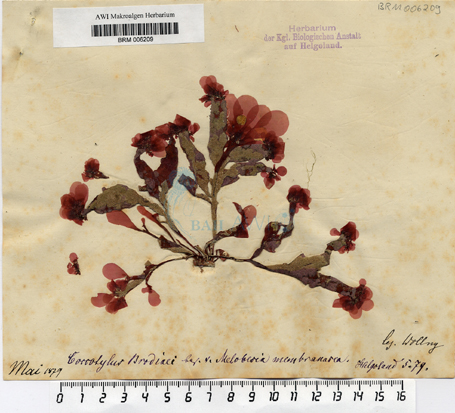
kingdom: Plantae
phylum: Rhodophyta
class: Florideophyceae
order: Gigartinales
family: Phyllophoraceae
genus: Coccotylus
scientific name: Coccotylus brodiei
